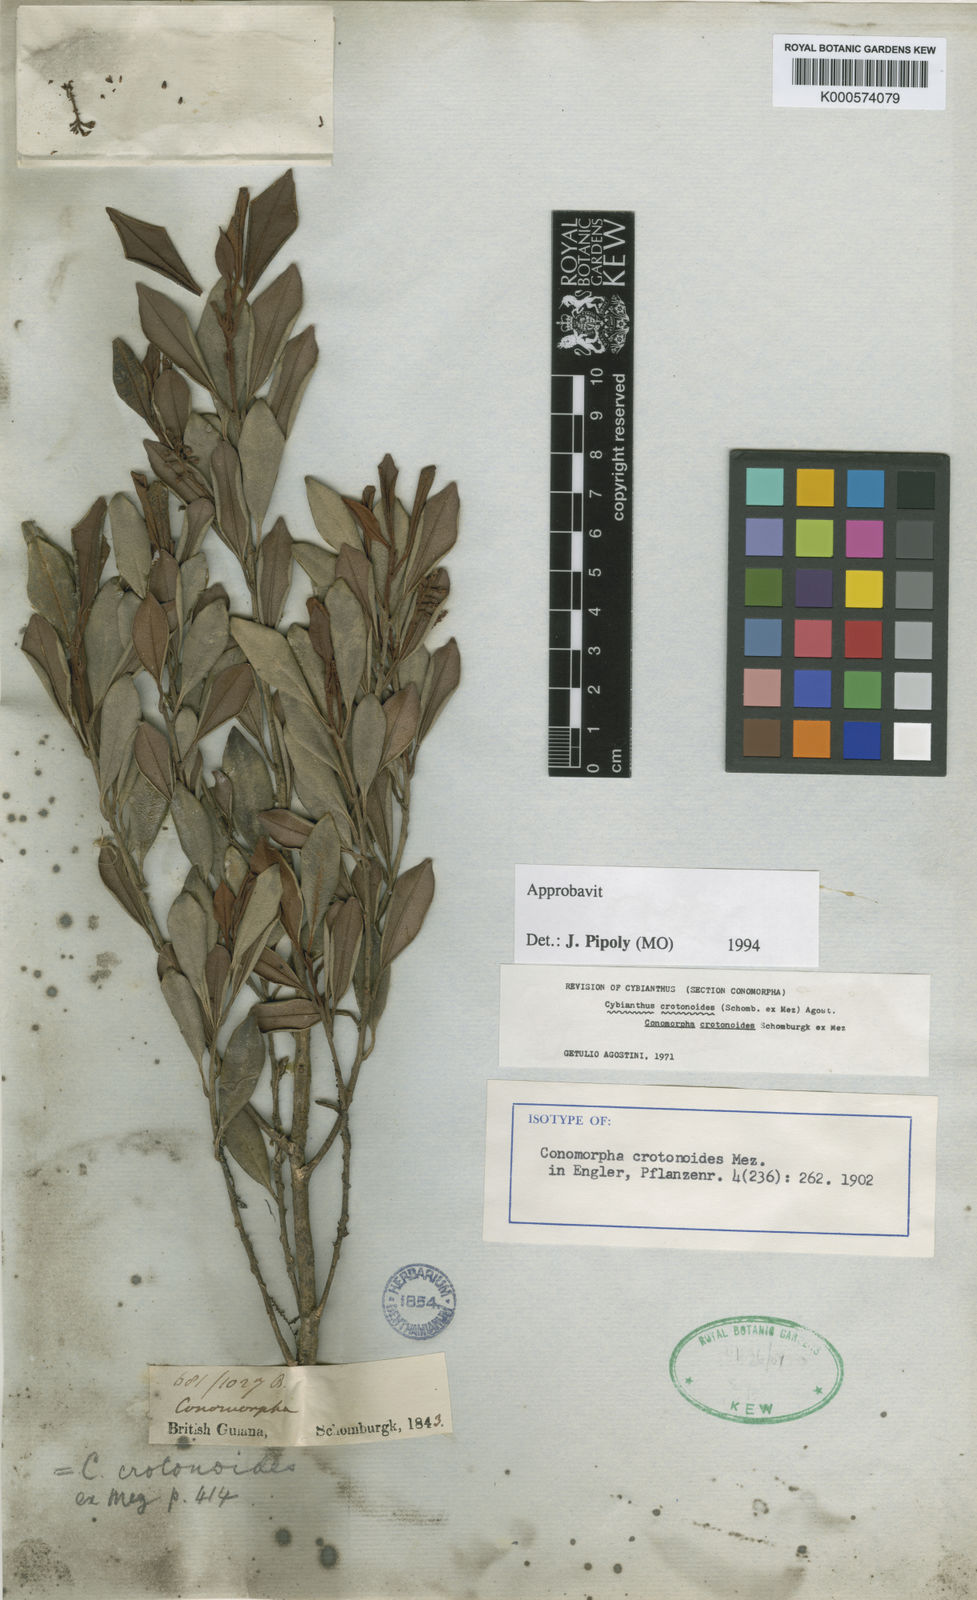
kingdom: Plantae
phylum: Tracheophyta
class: Magnoliopsida
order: Ericales
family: Primulaceae
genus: Cybianthus
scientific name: Cybianthus crotonoides
